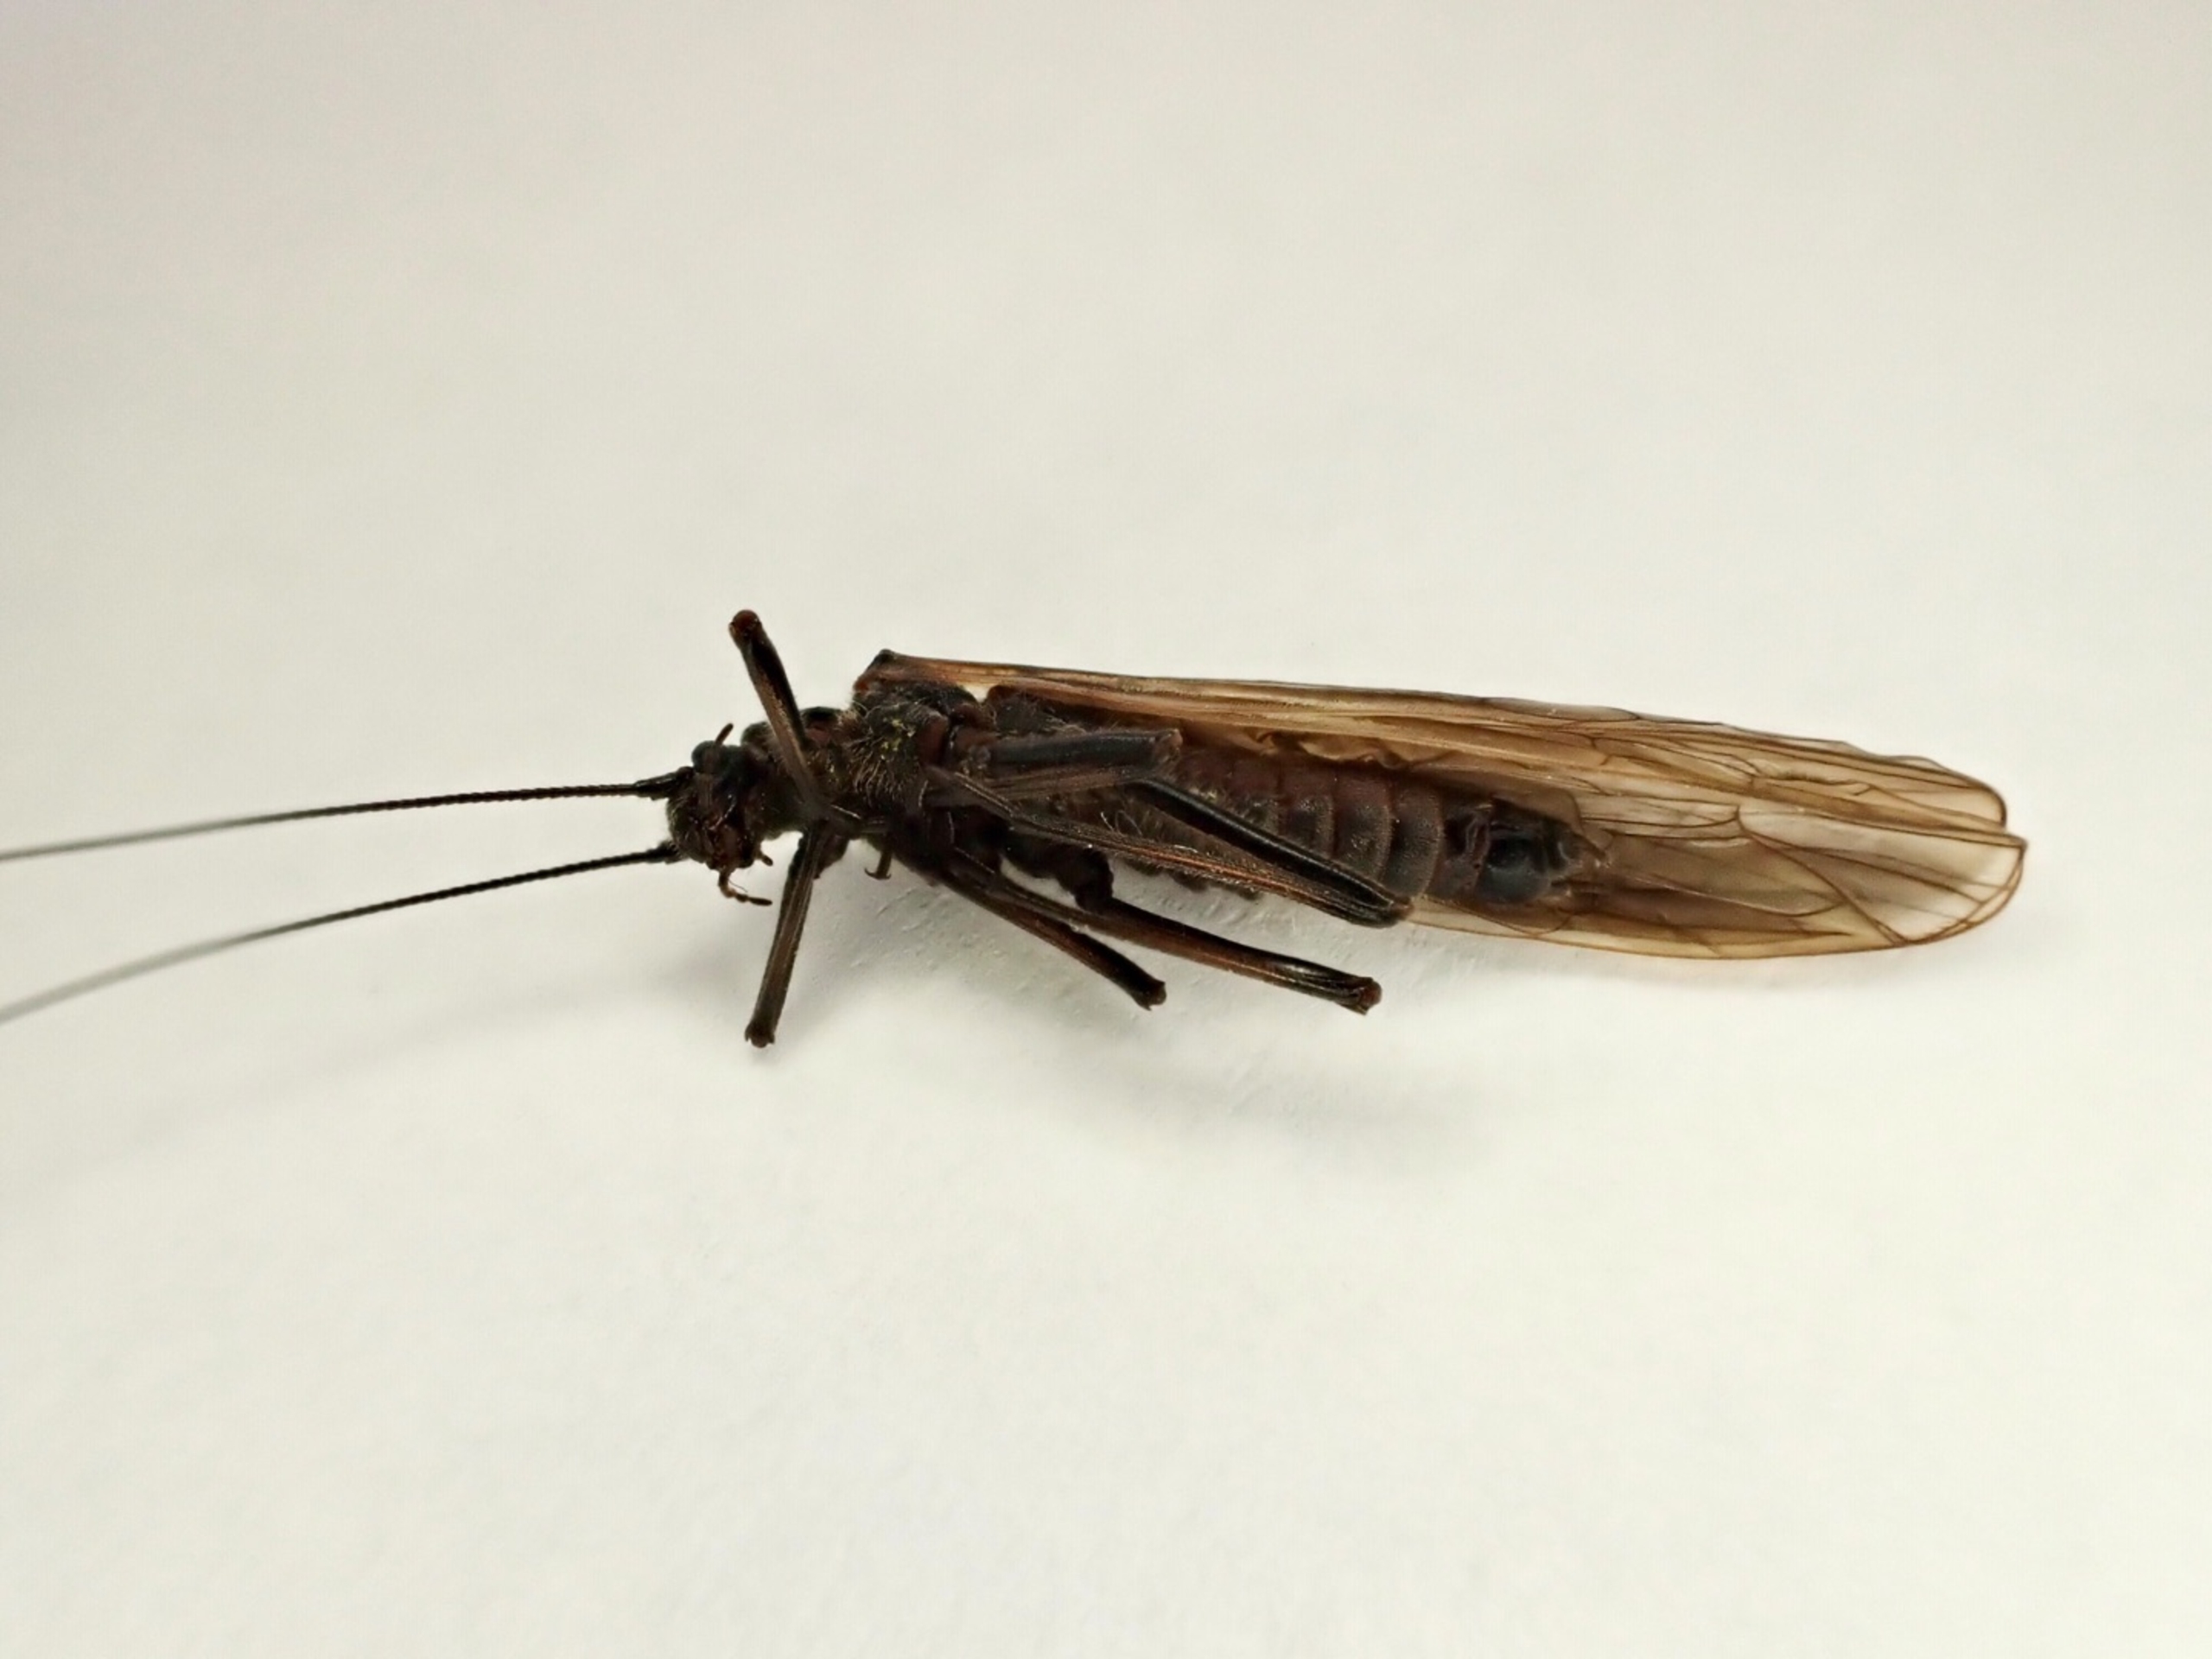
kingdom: Animalia
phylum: Arthropoda
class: Insecta
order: Plecoptera
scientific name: Plecoptera
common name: Slørvinger
